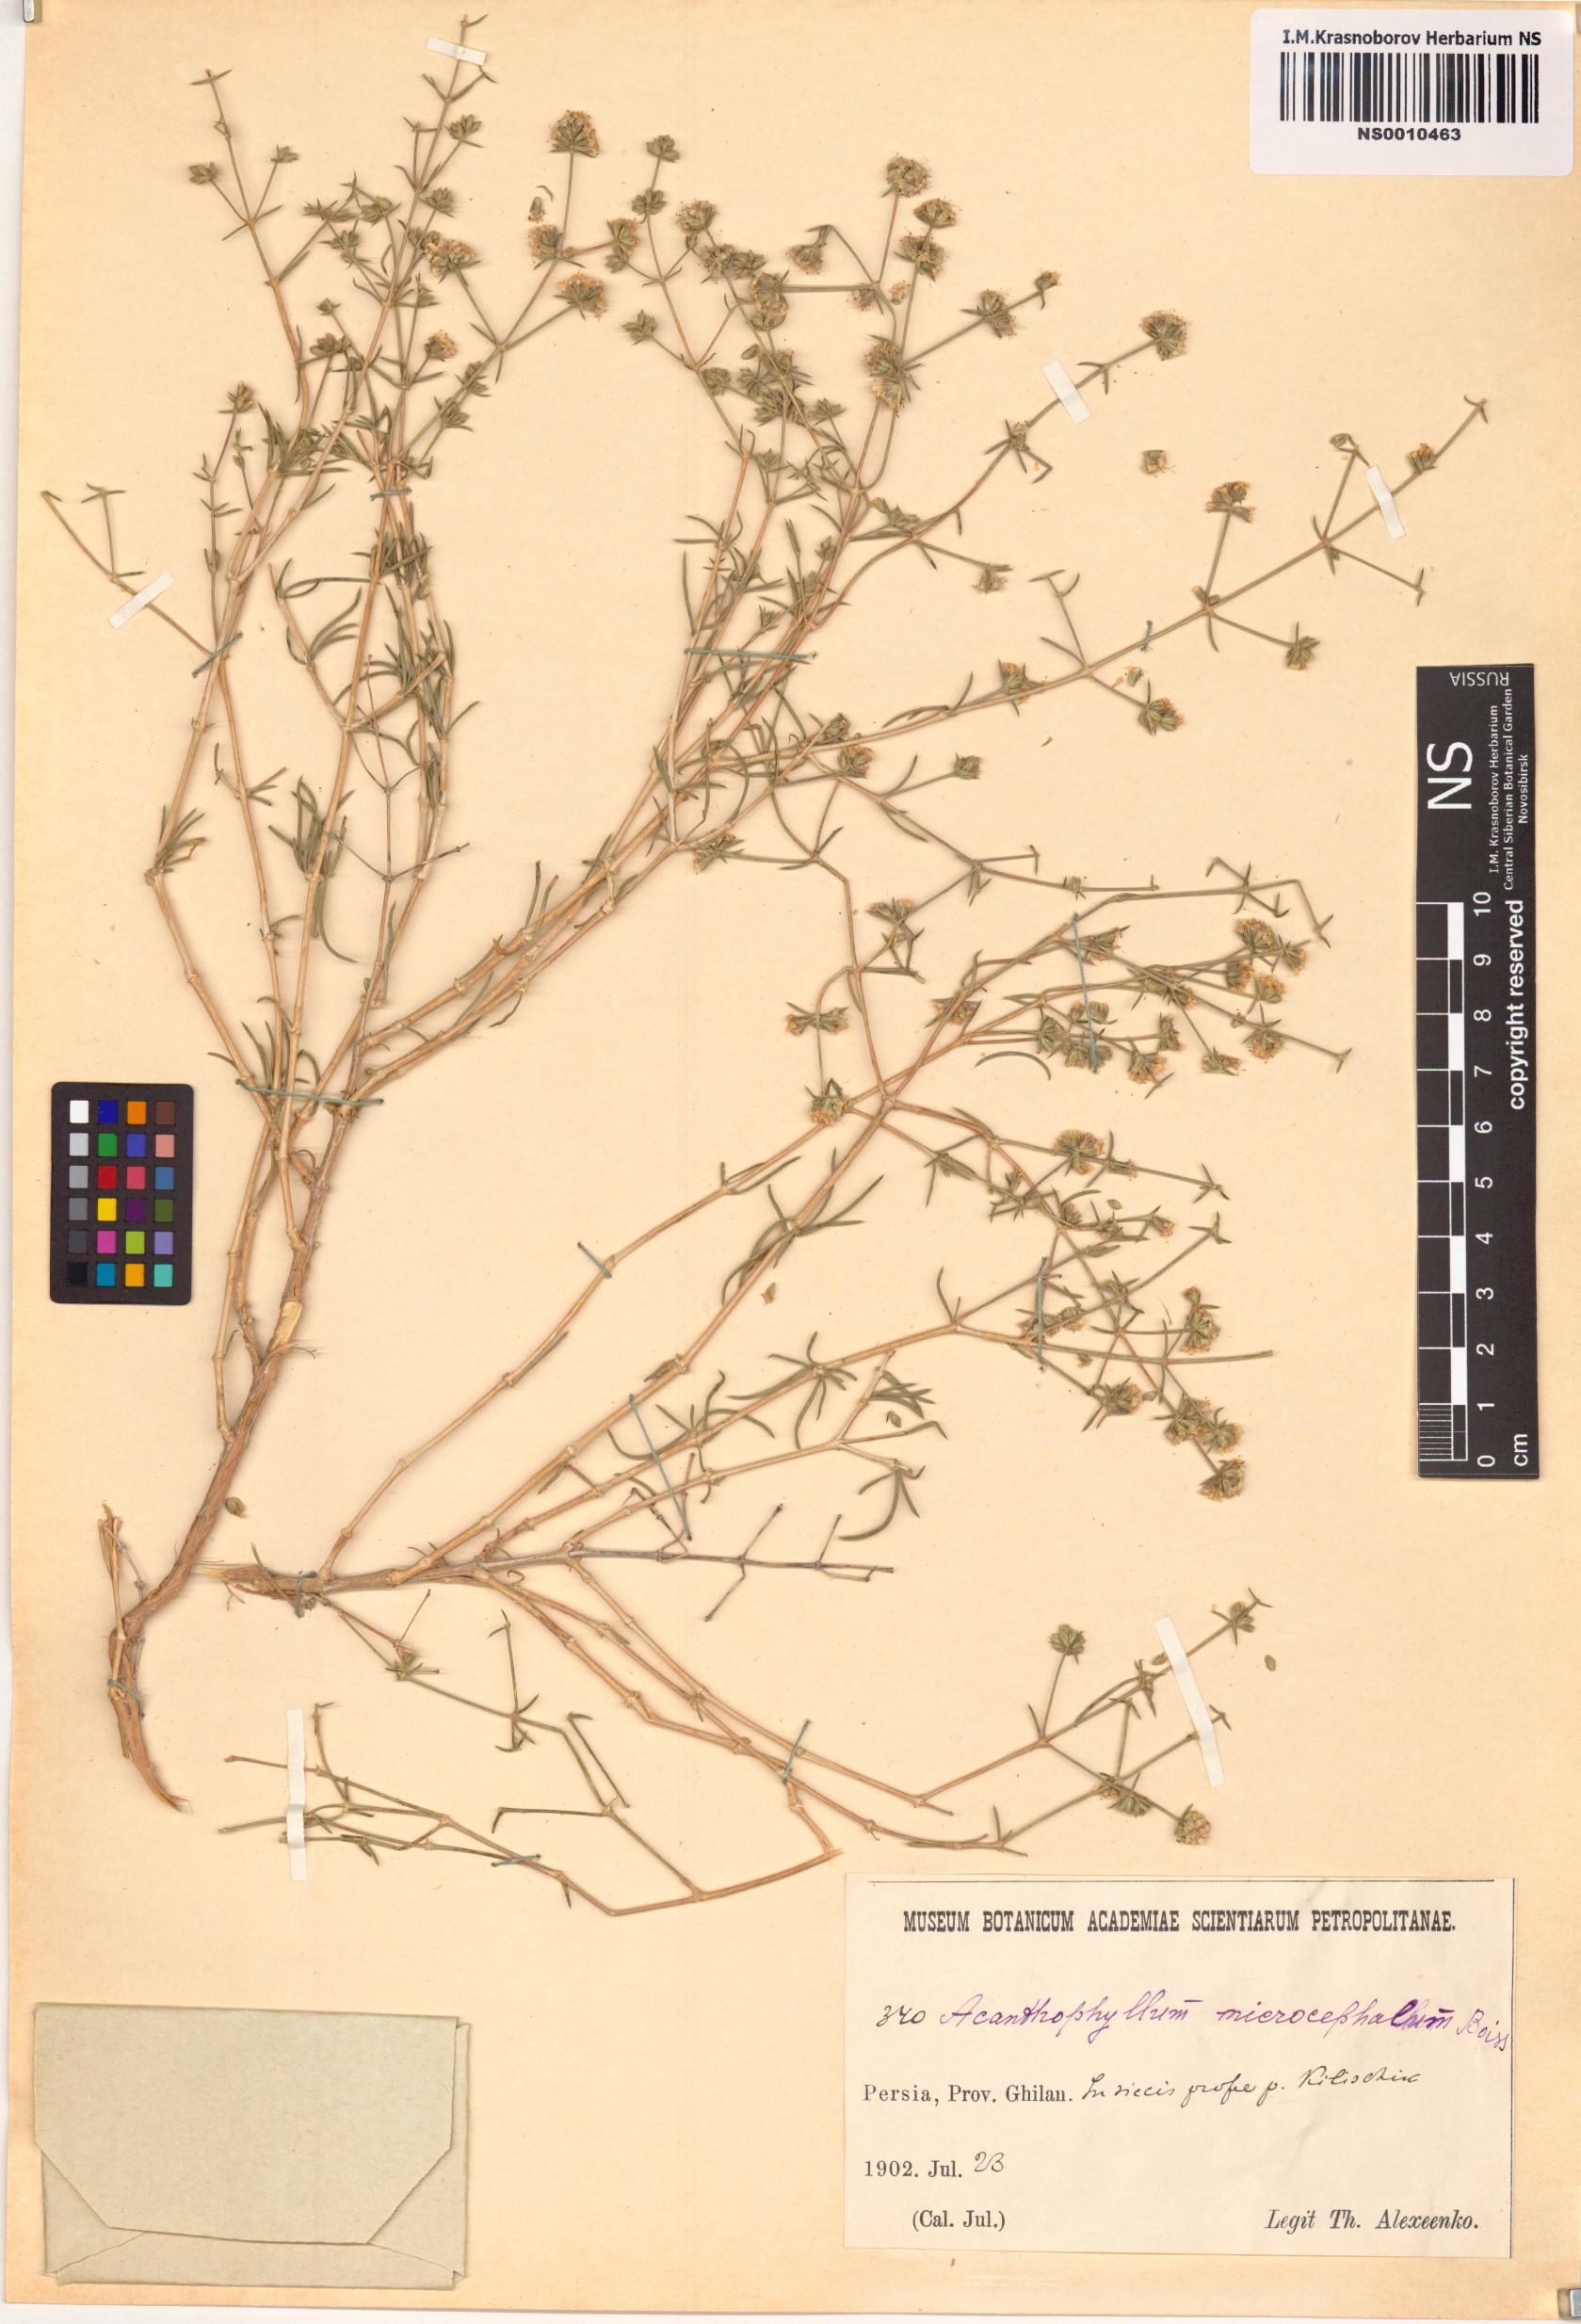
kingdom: Plantae
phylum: Tracheophyta
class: Magnoliopsida
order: Caryophyllales
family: Caryophyllaceae
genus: Acanthophyllum
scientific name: Acanthophyllum microcephalum
